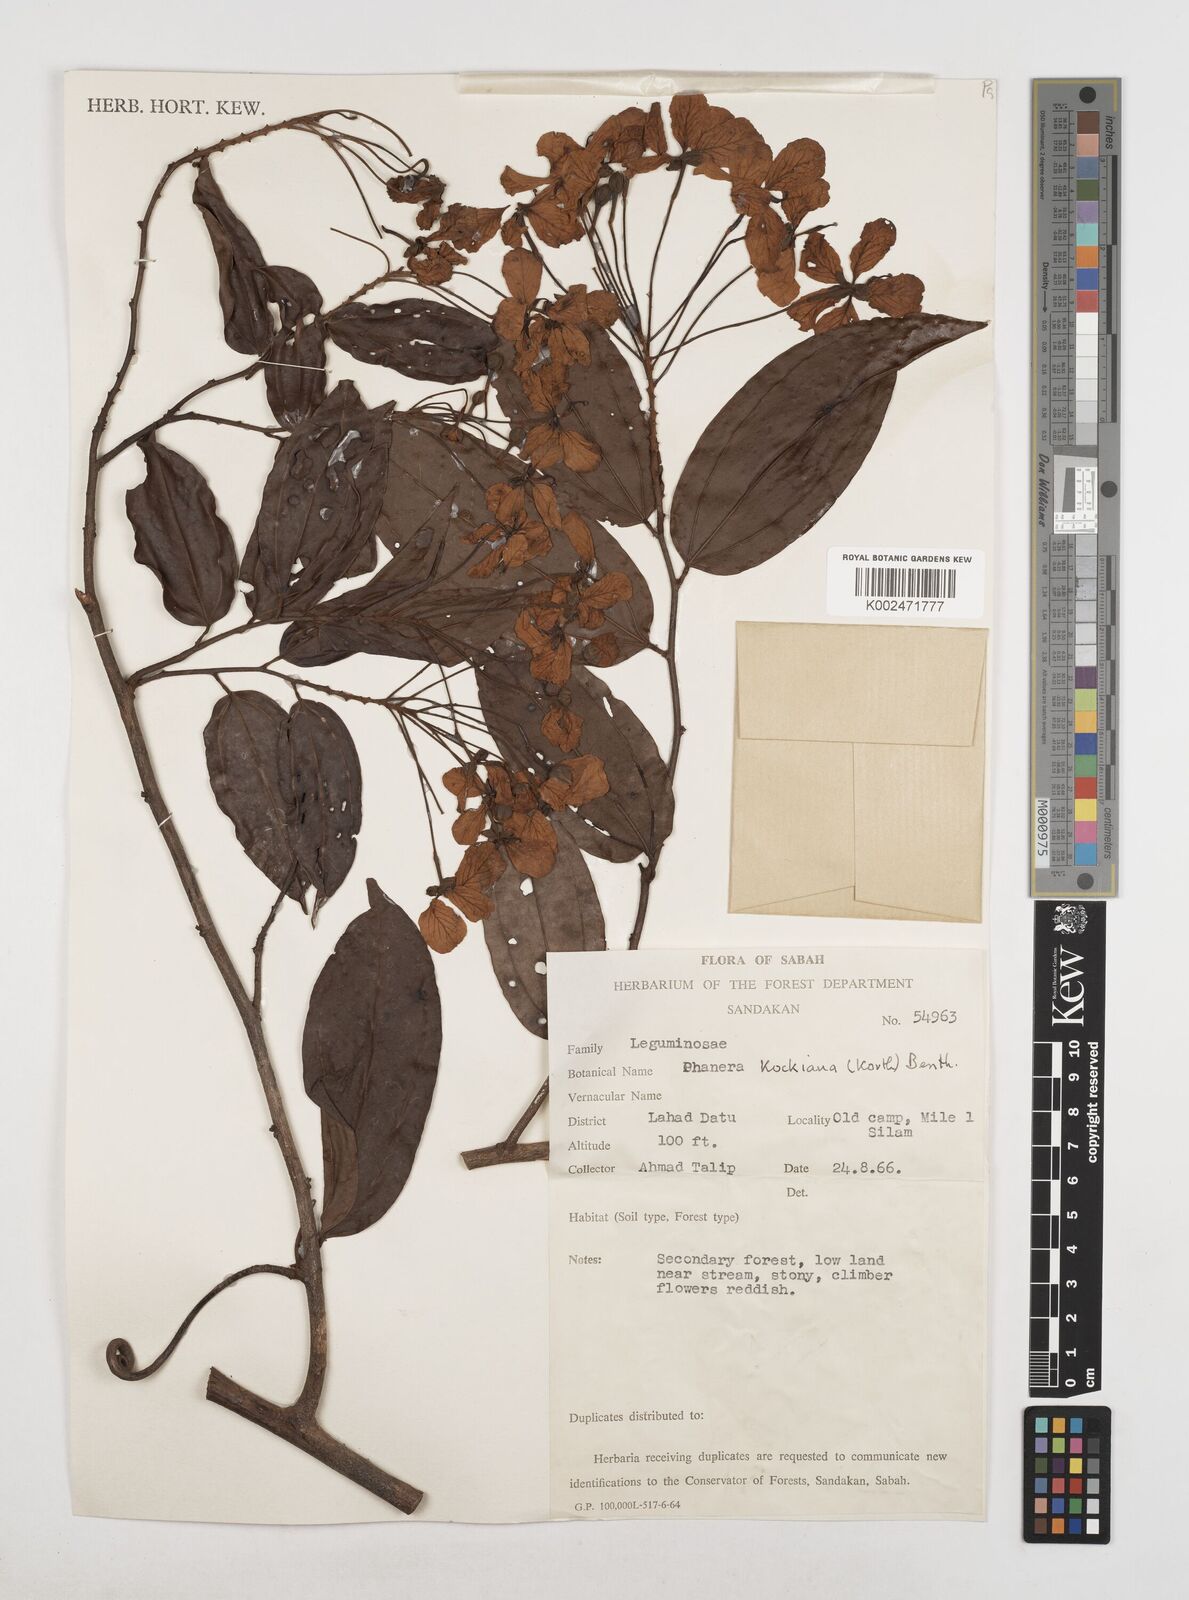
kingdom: Plantae
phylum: Tracheophyta
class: Magnoliopsida
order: Fabales
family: Fabaceae
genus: Phanera
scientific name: Phanera kockiana
